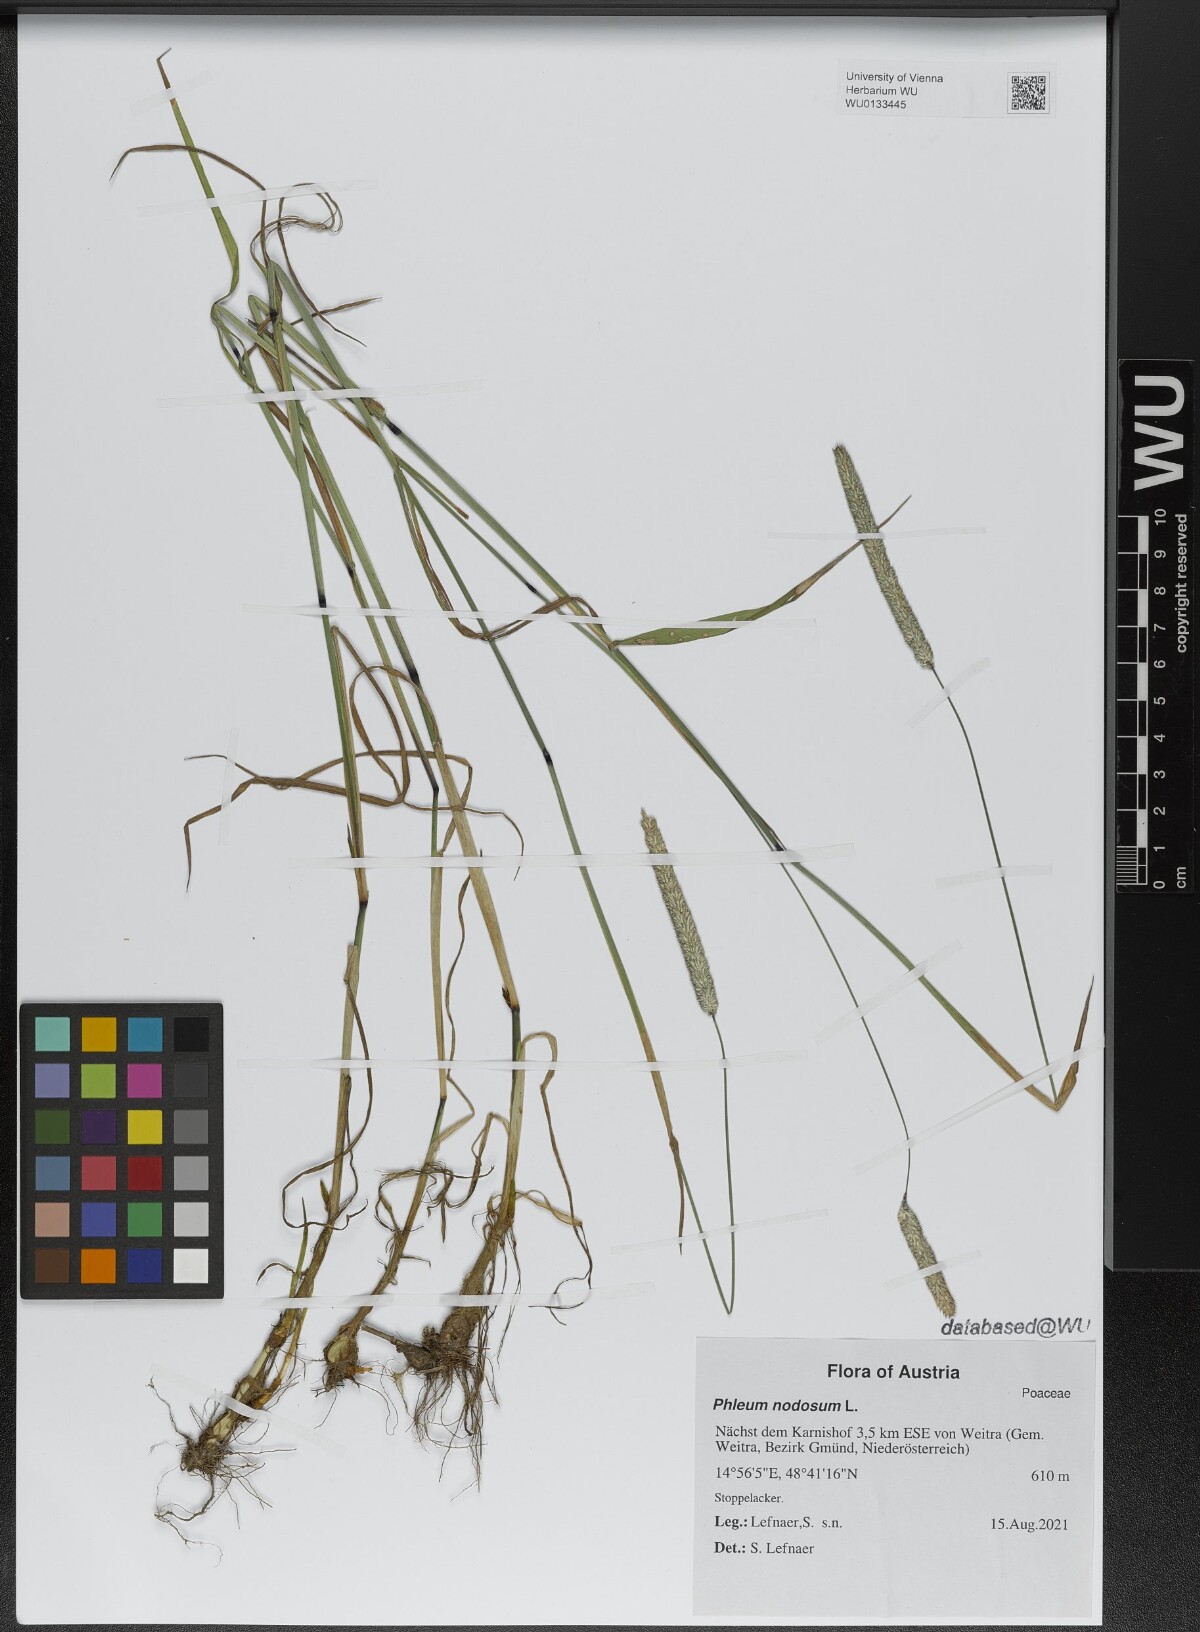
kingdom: Plantae
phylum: Tracheophyta
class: Liliopsida
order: Poales
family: Poaceae
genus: Phleum
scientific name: Phleum pratense
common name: Timothy grass
